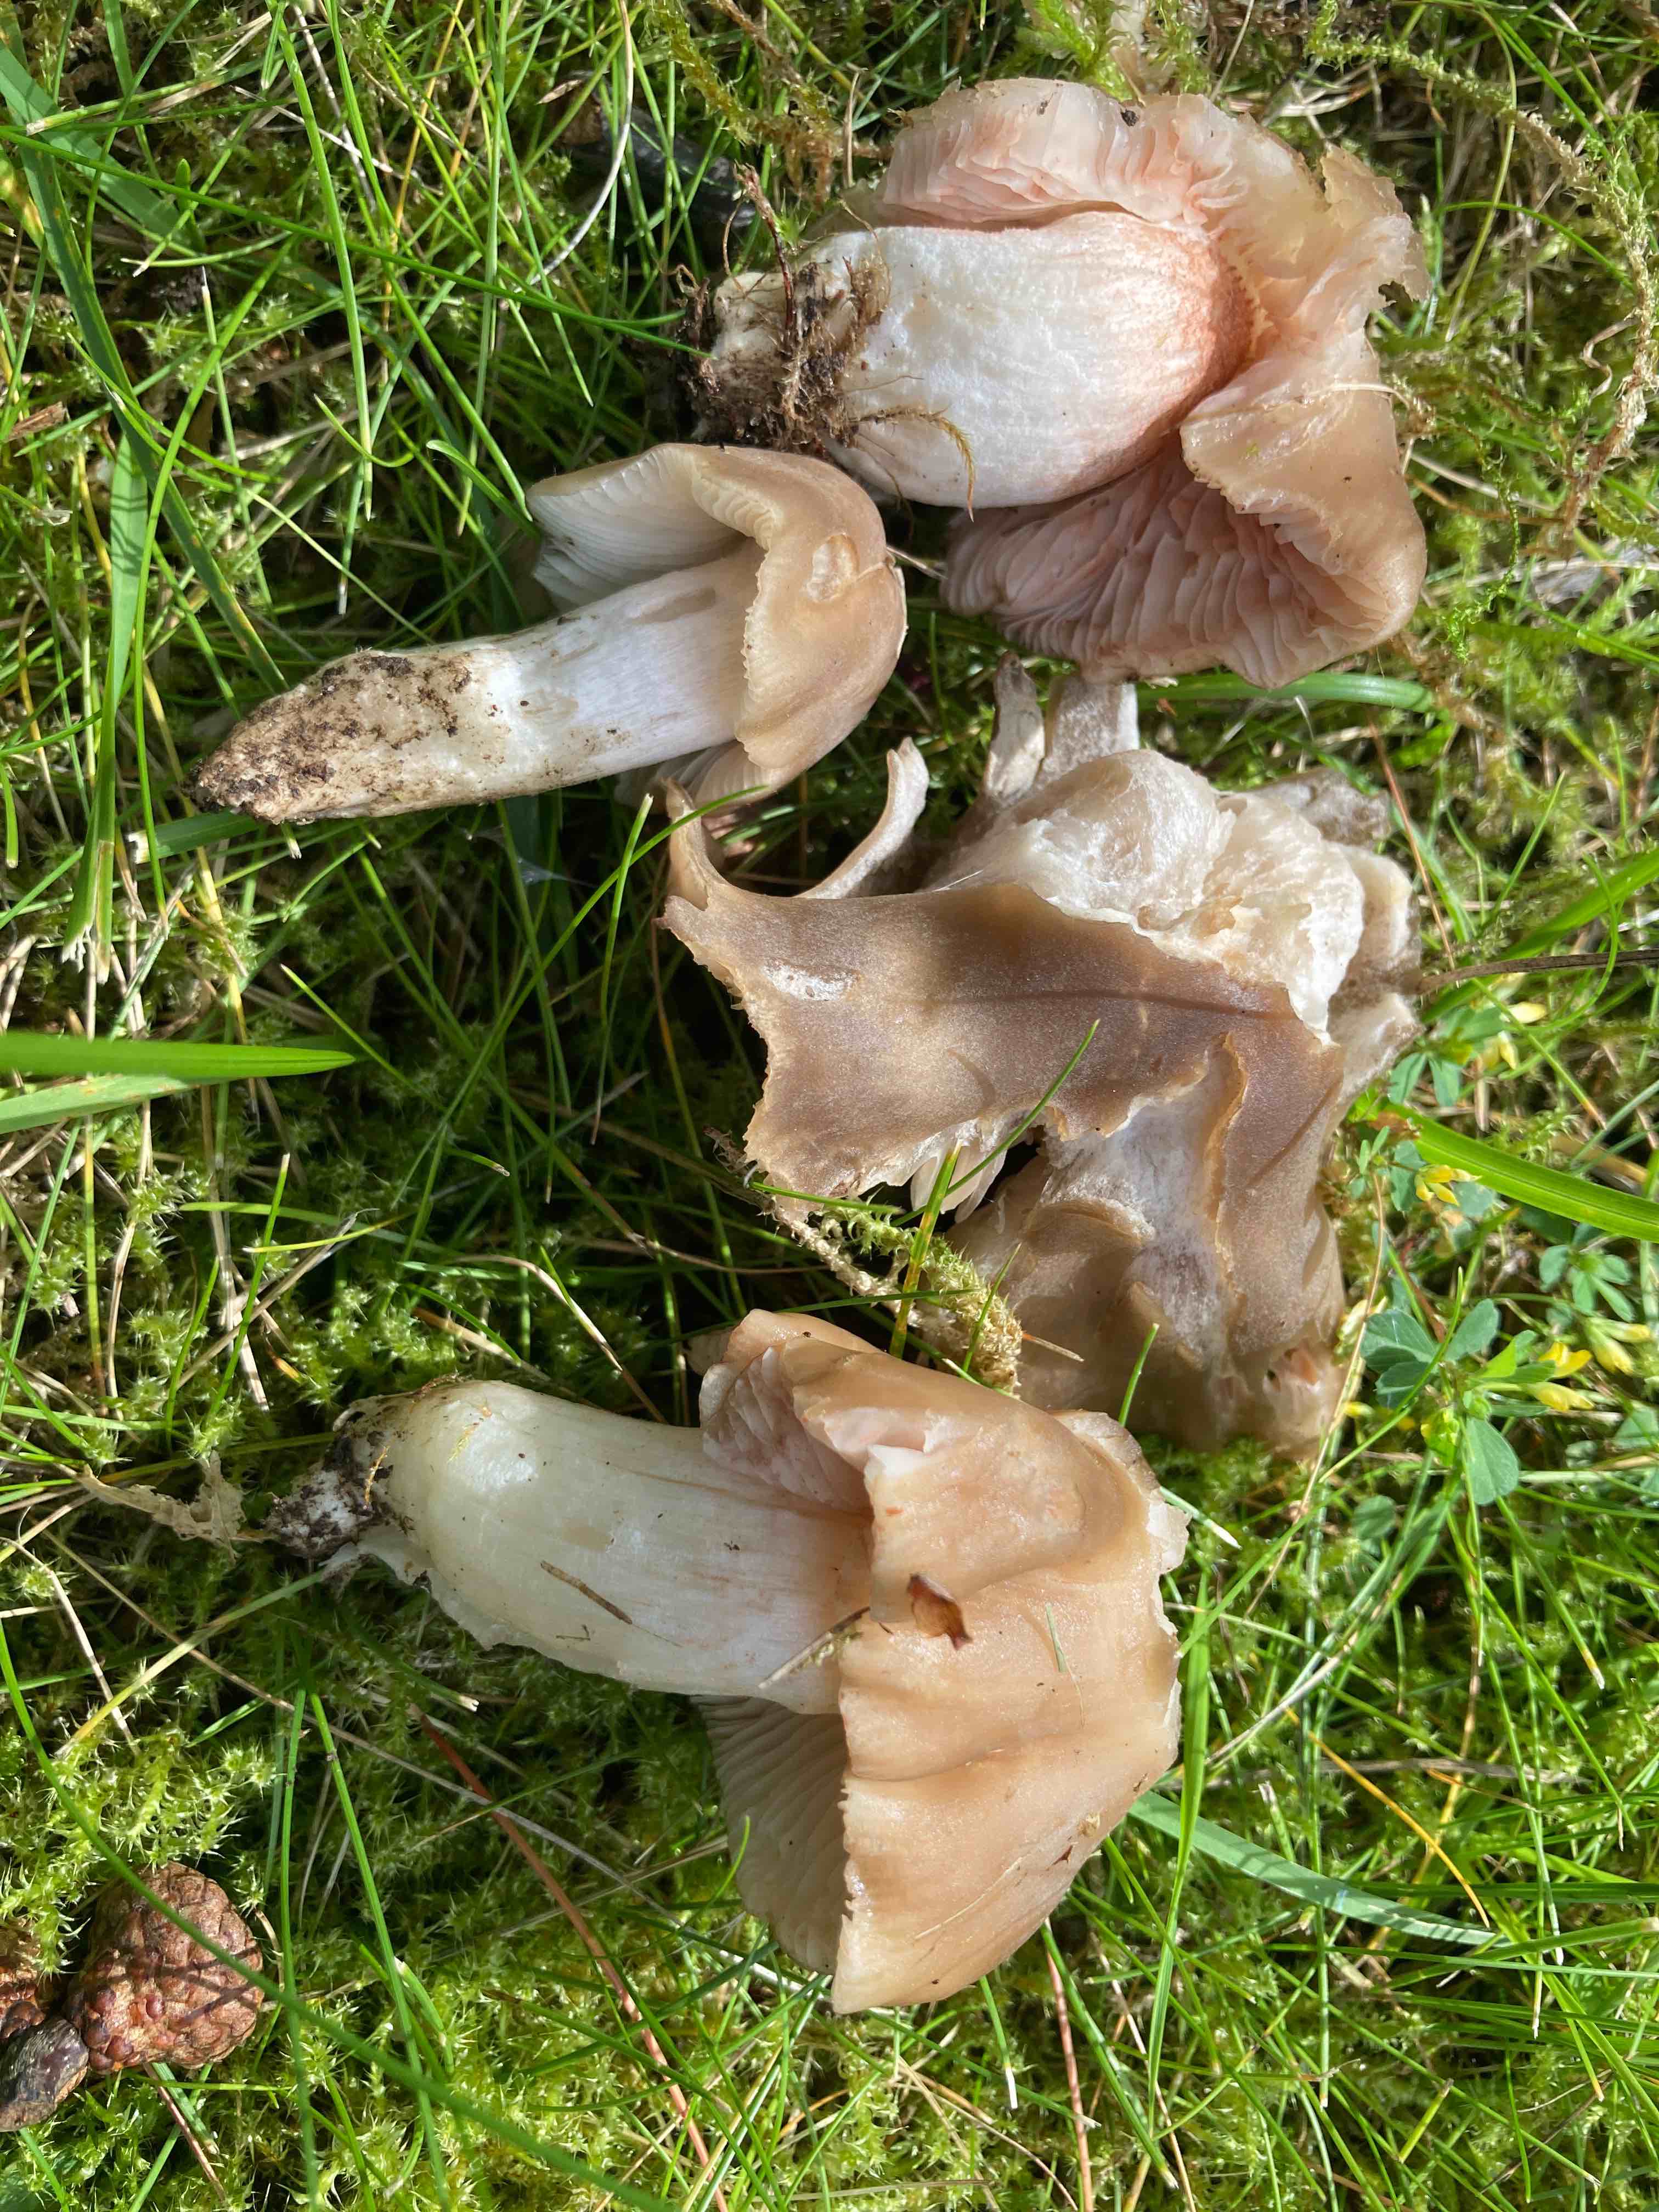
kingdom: Fungi
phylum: Basidiomycota
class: Agaricomycetes
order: Agaricales
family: Entolomataceae
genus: Entoloma
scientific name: Entoloma lividoalbum
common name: lysstokket rødblad
